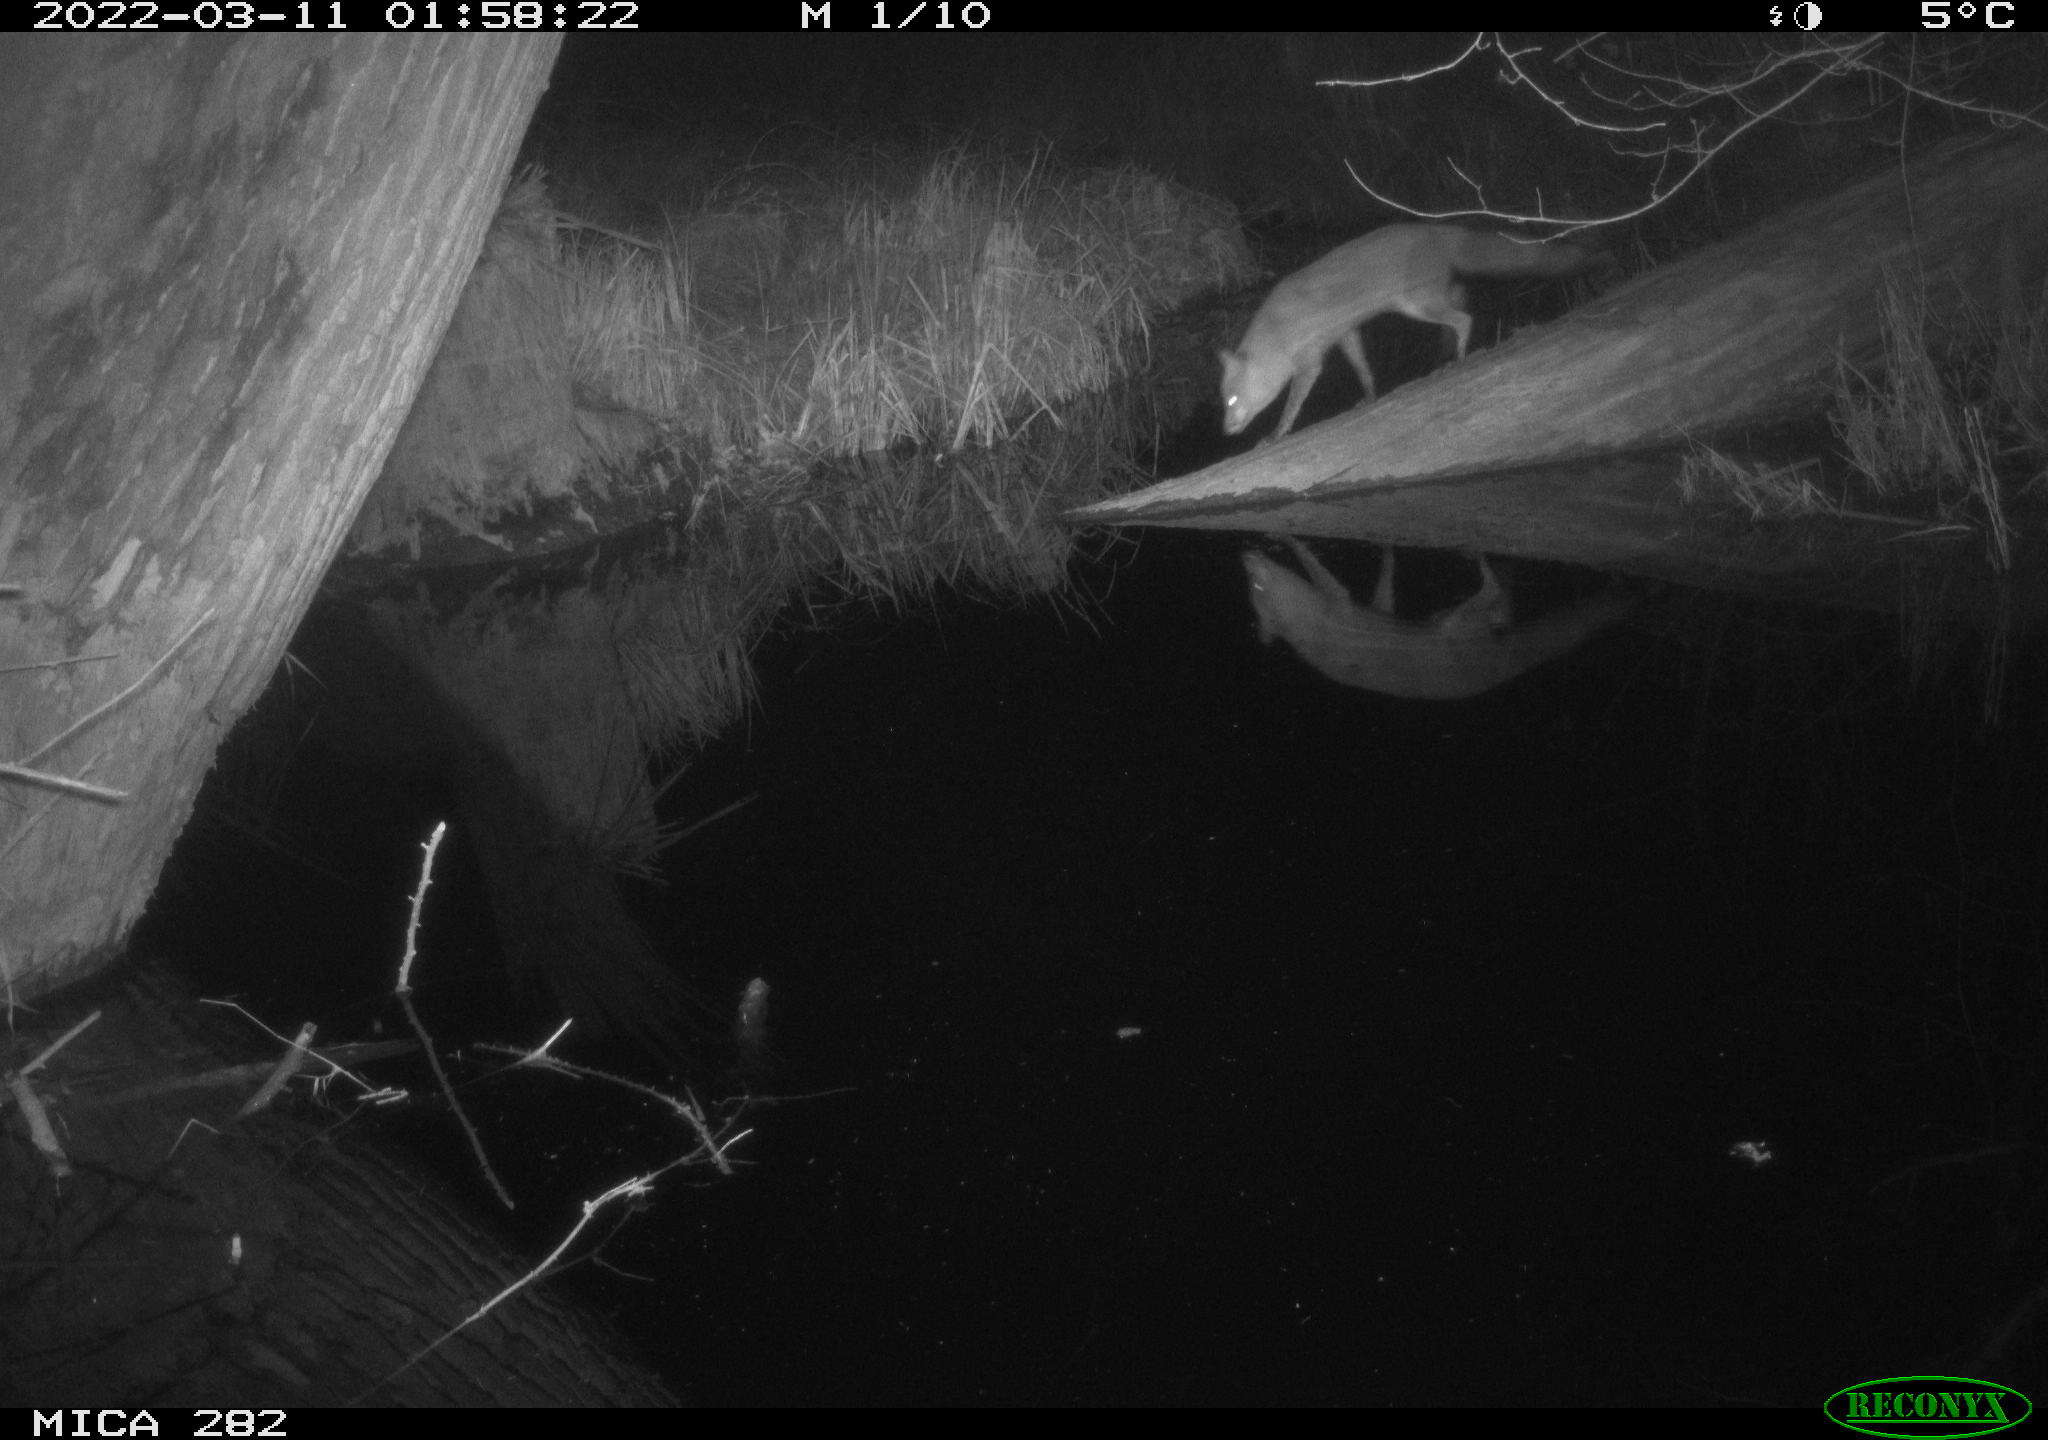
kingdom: Animalia
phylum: Chordata
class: Mammalia
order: Carnivora
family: Canidae
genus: Vulpes
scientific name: Vulpes vulpes
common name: Red fox
